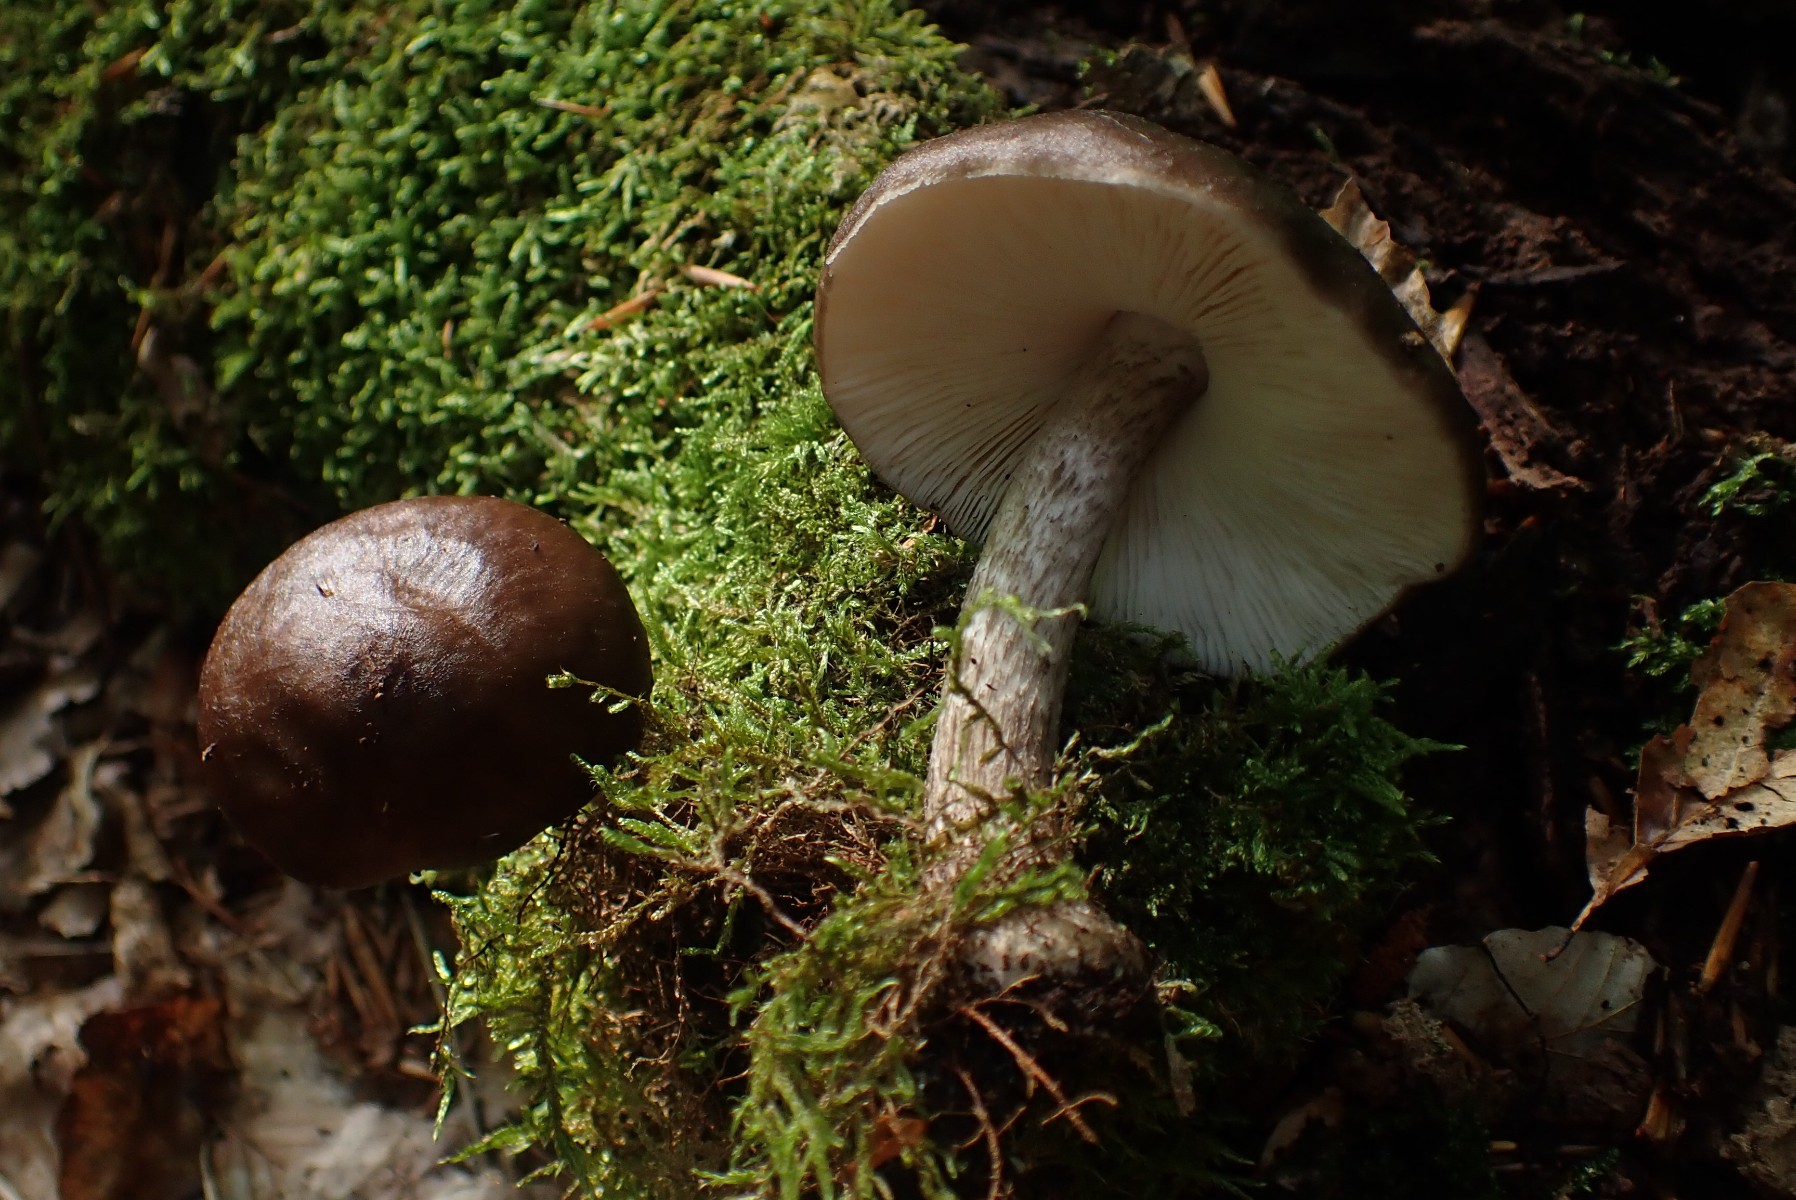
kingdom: Fungi
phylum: Basidiomycota
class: Agaricomycetes
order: Agaricales
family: Pluteaceae
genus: Pluteus
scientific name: Pluteus cervinus
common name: sodfarvet skærmhat
